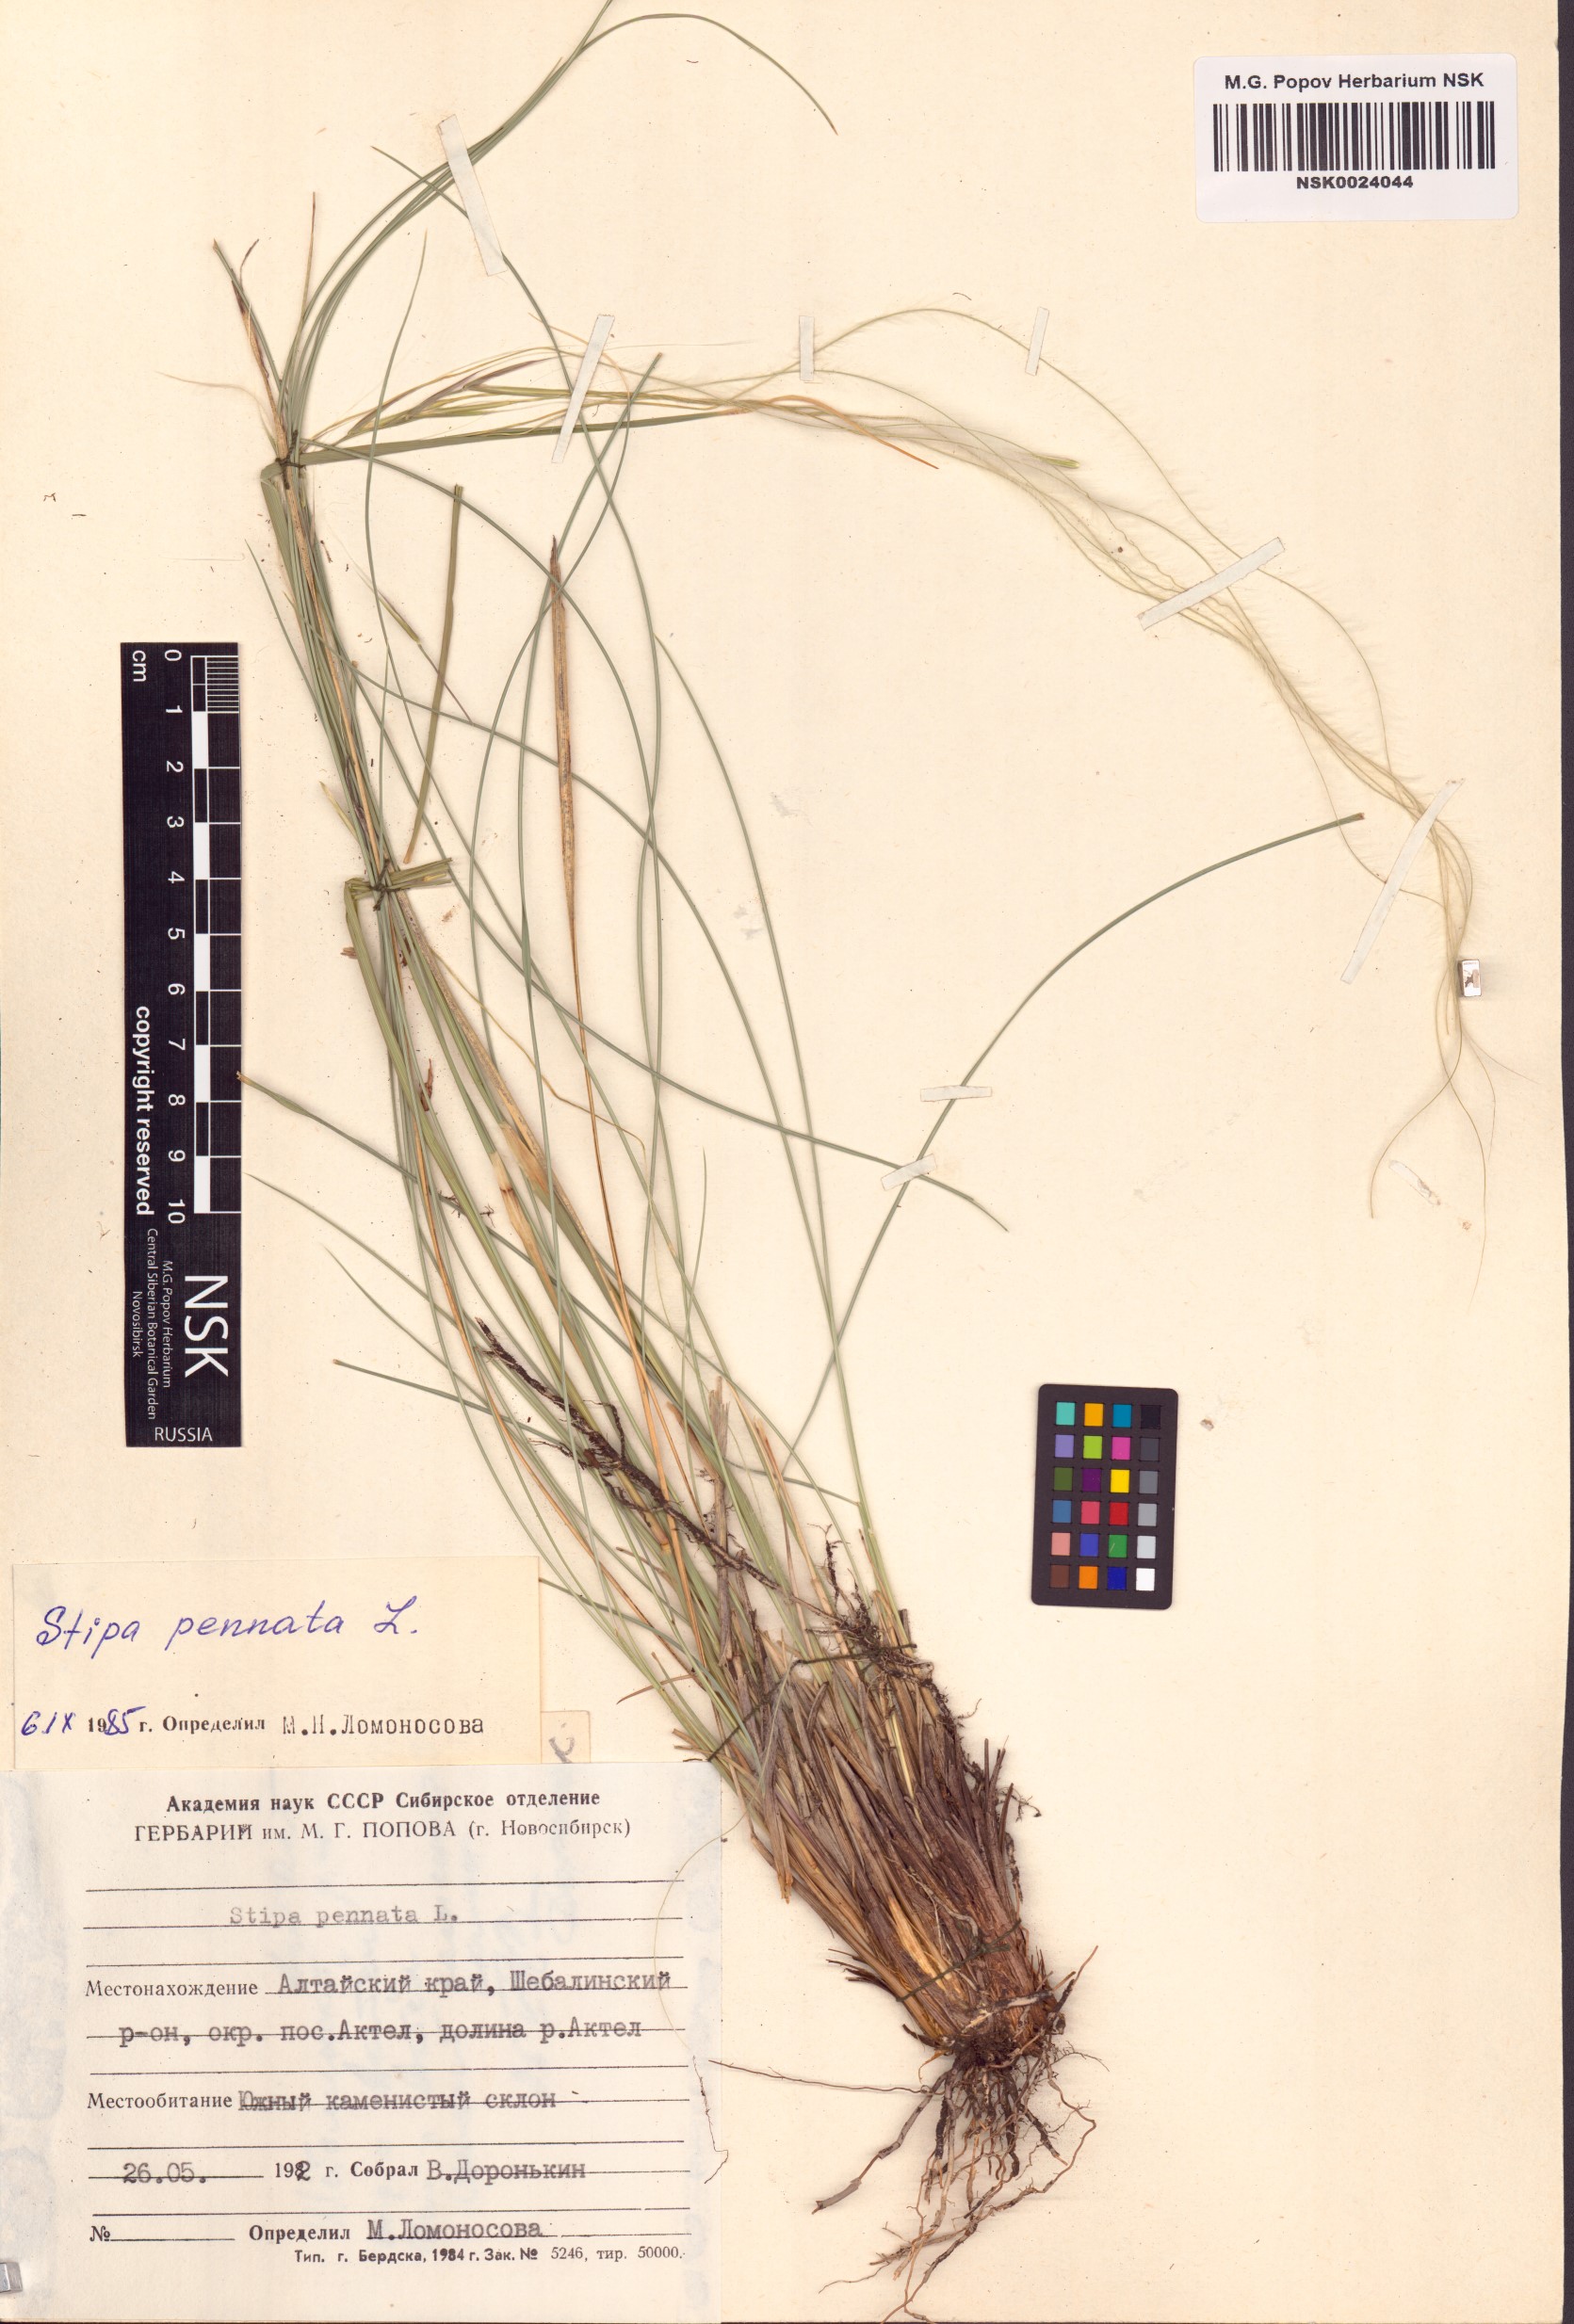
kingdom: Plantae
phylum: Tracheophyta
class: Liliopsida
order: Poales
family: Poaceae
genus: Stipa
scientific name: Stipa pennata
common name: European feather grass
